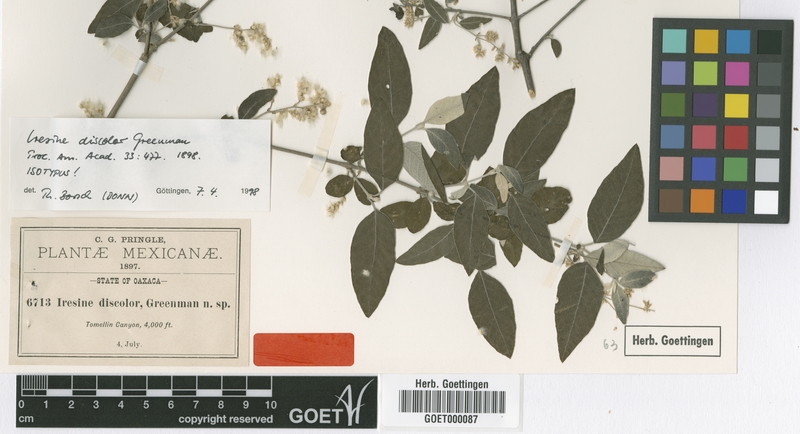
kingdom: Plantae
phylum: Tracheophyta
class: Magnoliopsida
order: Caryophyllales
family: Amaranthaceae
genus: Iresine
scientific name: Iresine discolor
